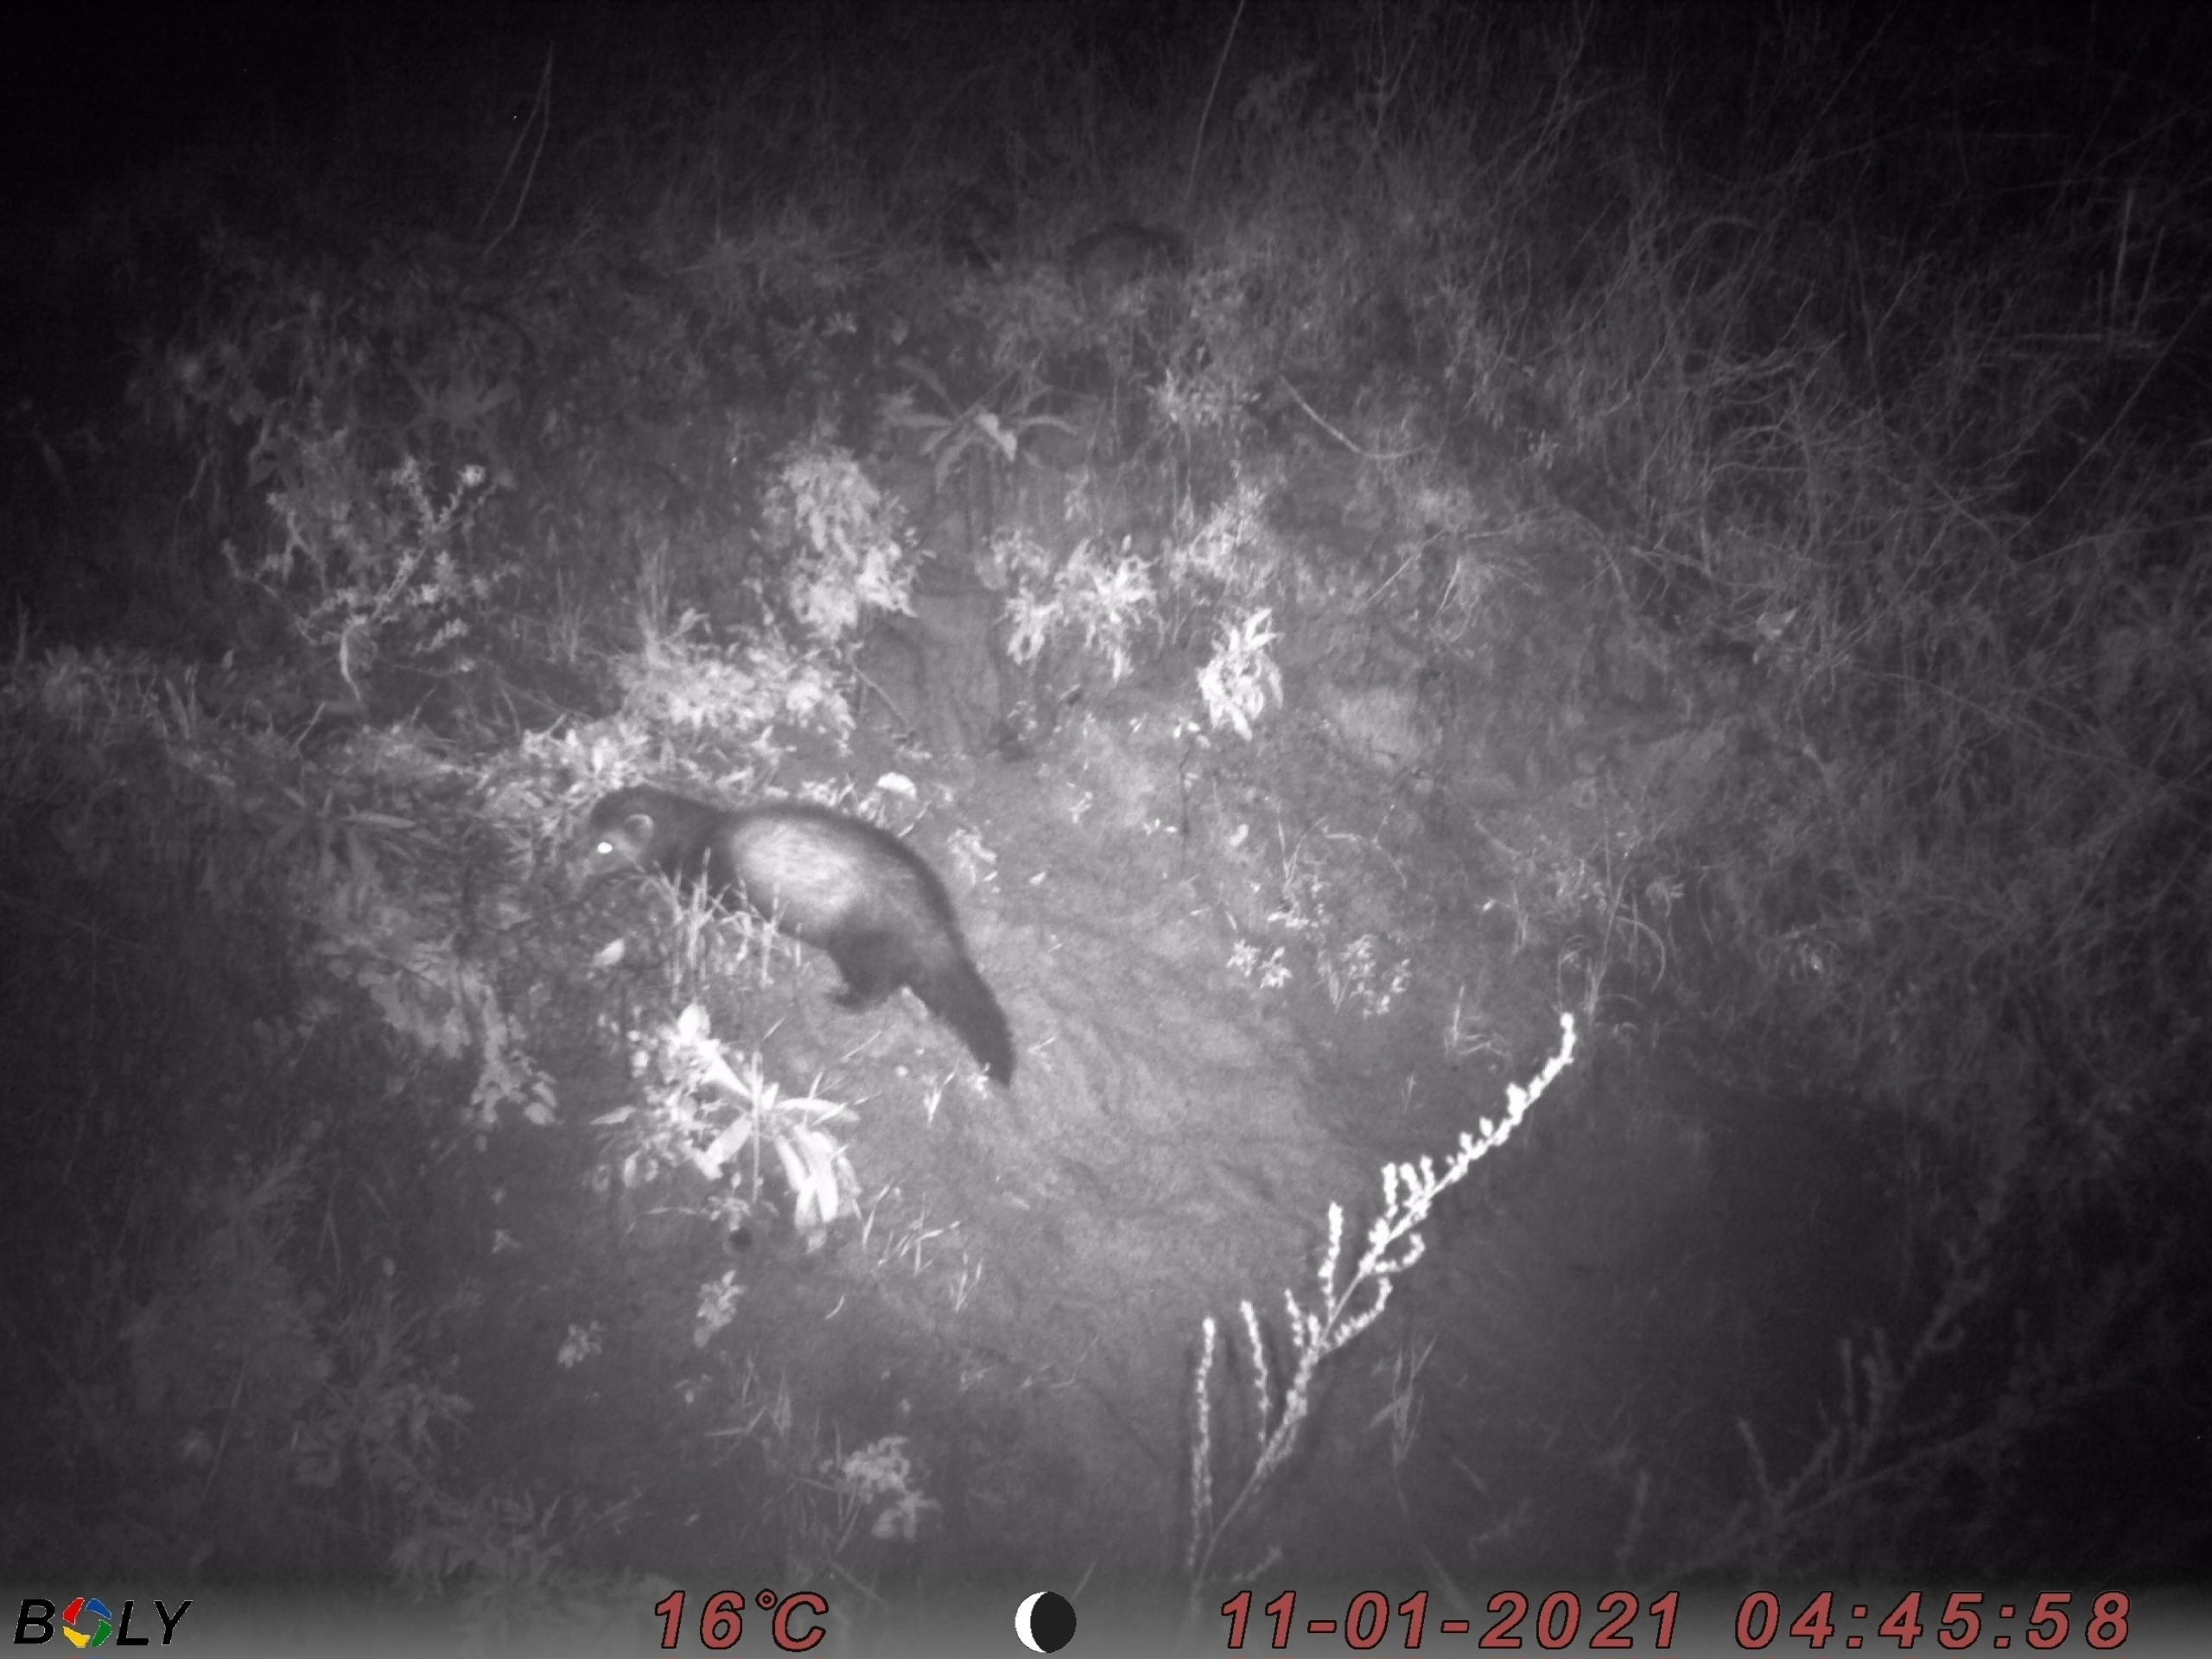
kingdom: Animalia
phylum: Chordata
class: Mammalia
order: Carnivora
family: Mustelidae
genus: Mustela
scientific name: Mustela putorius
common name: Ilder
